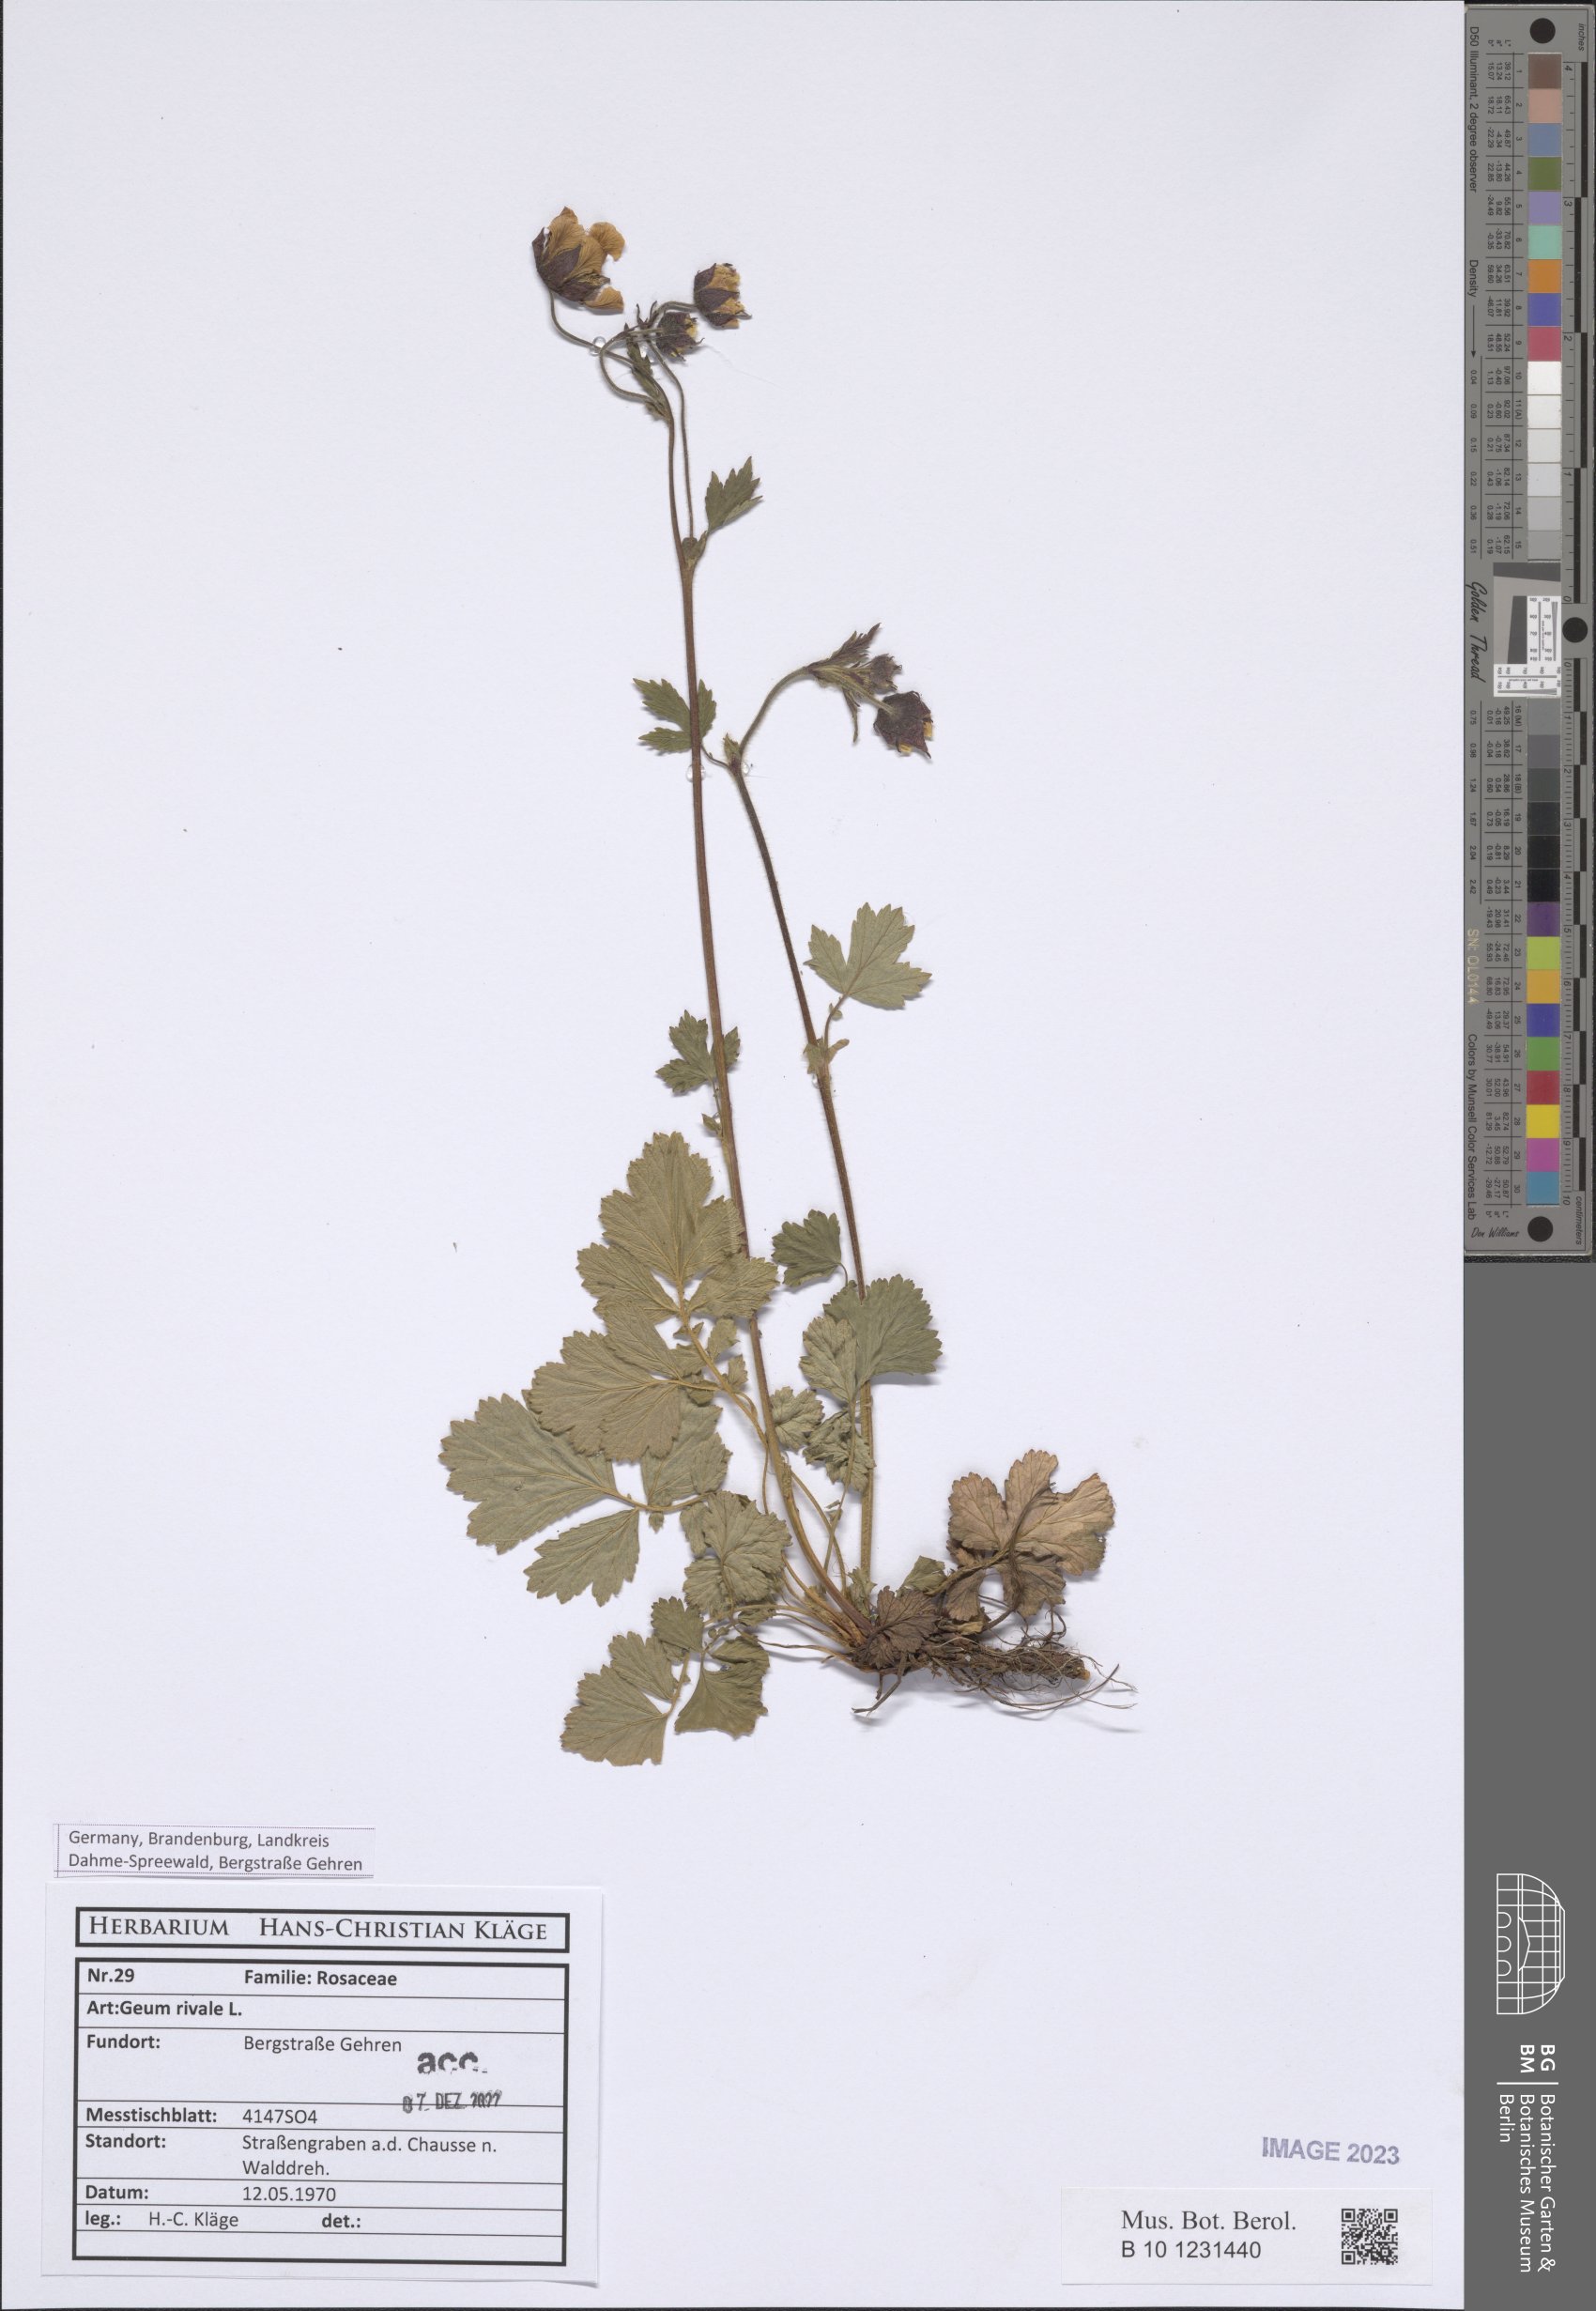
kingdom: Plantae
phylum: Tracheophyta
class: Magnoliopsida
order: Rosales
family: Rosaceae
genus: Geum
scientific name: Geum rivale
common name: Water avens
